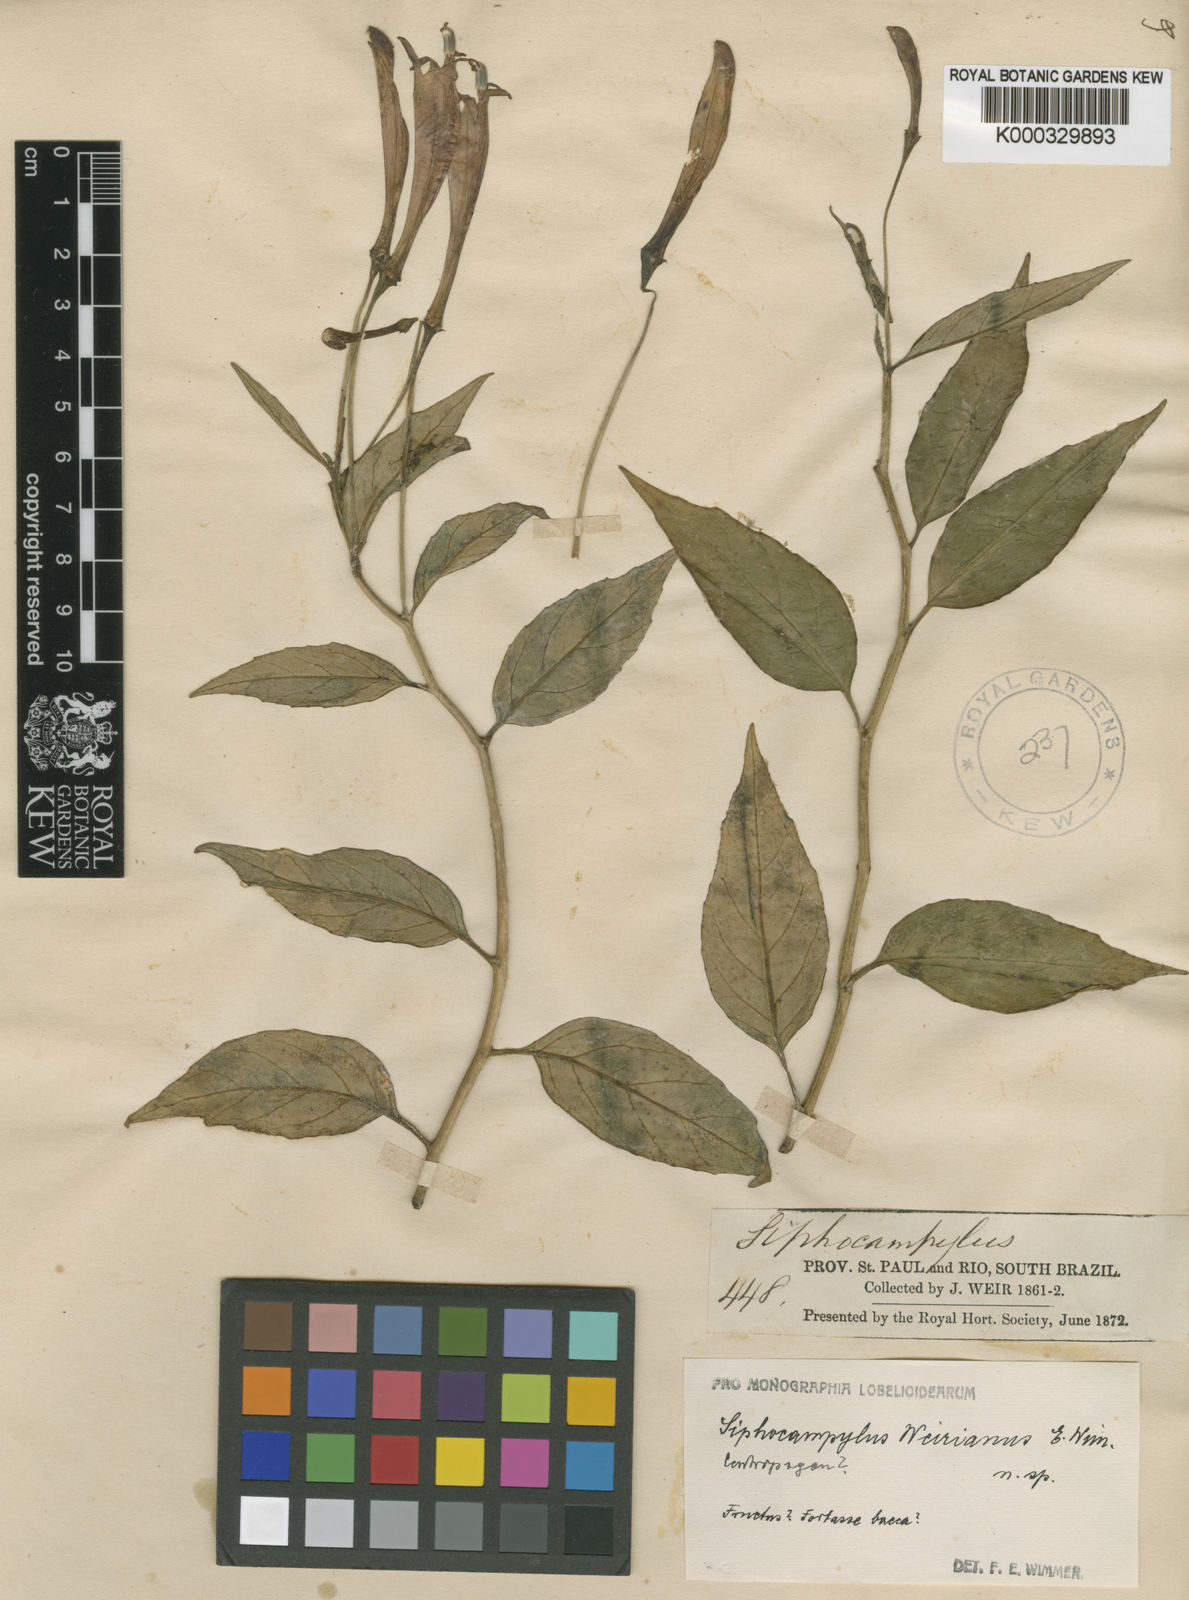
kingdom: Plantae
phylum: Tracheophyta
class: Magnoliopsida
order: Asterales
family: Campanulaceae
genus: Siphocampylus
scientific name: Siphocampylus convolvulaceus
